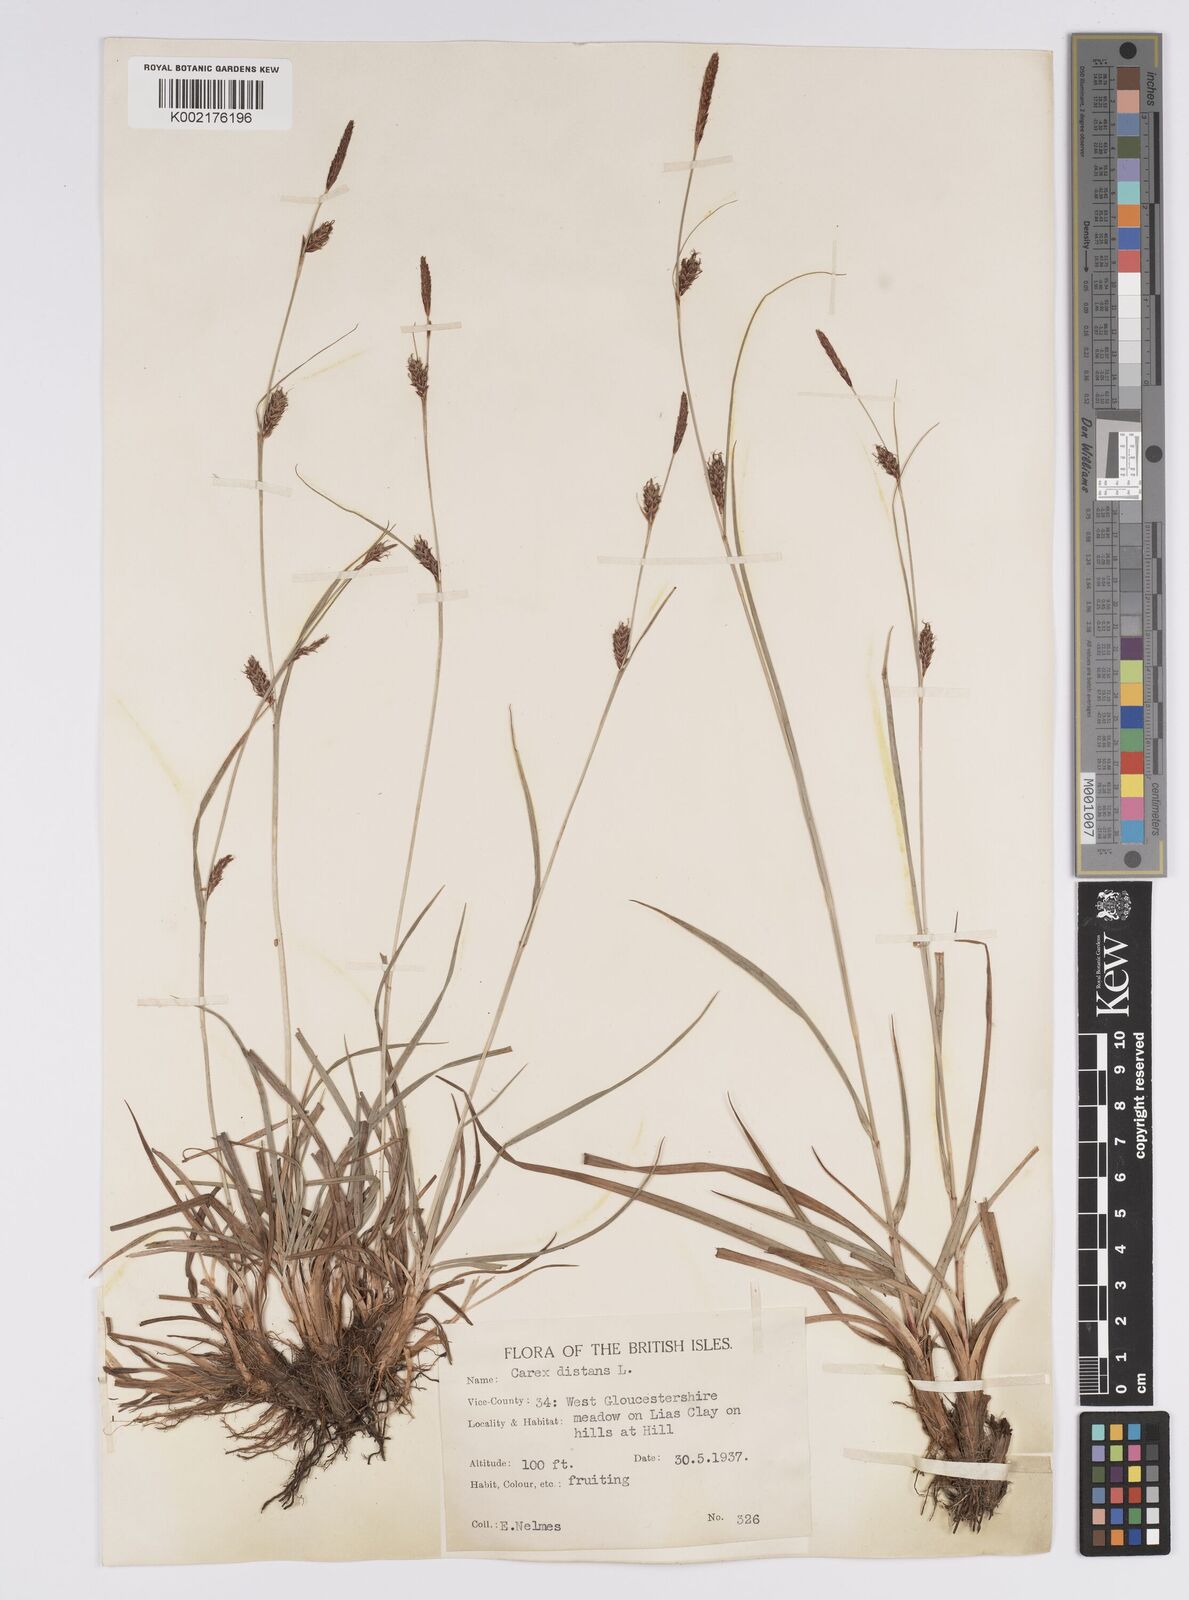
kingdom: Plantae
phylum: Tracheophyta
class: Liliopsida
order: Poales
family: Cyperaceae
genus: Carex
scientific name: Carex distans
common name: Distant sedge
